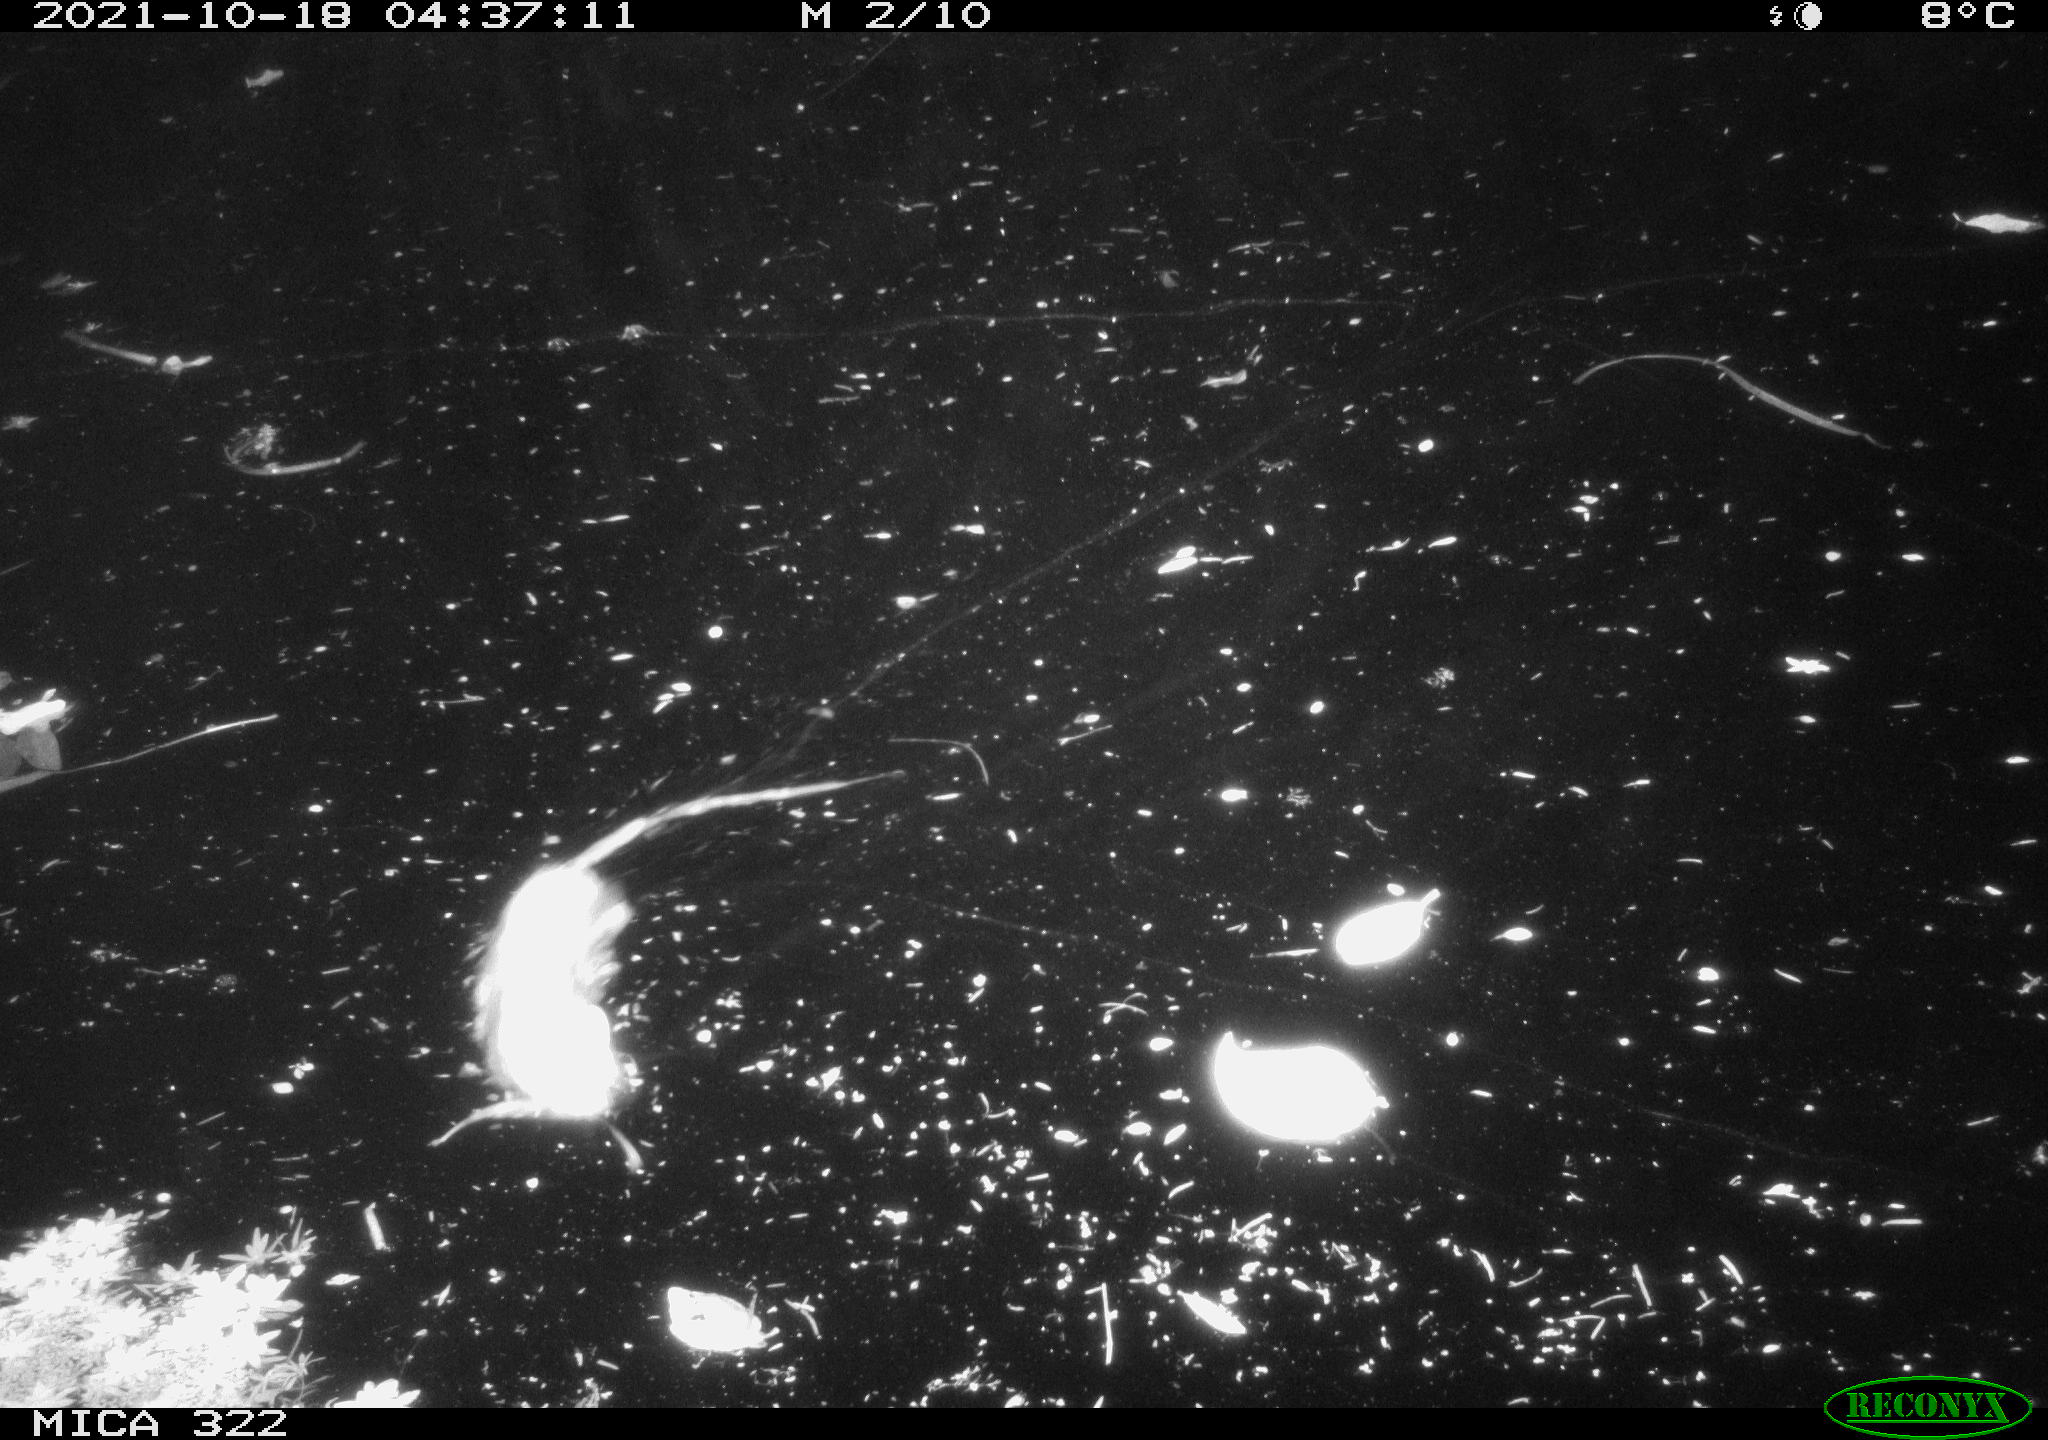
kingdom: Animalia
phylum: Chordata
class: Mammalia
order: Rodentia
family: Muridae
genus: Rattus
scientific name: Rattus norvegicus
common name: Brown rat
